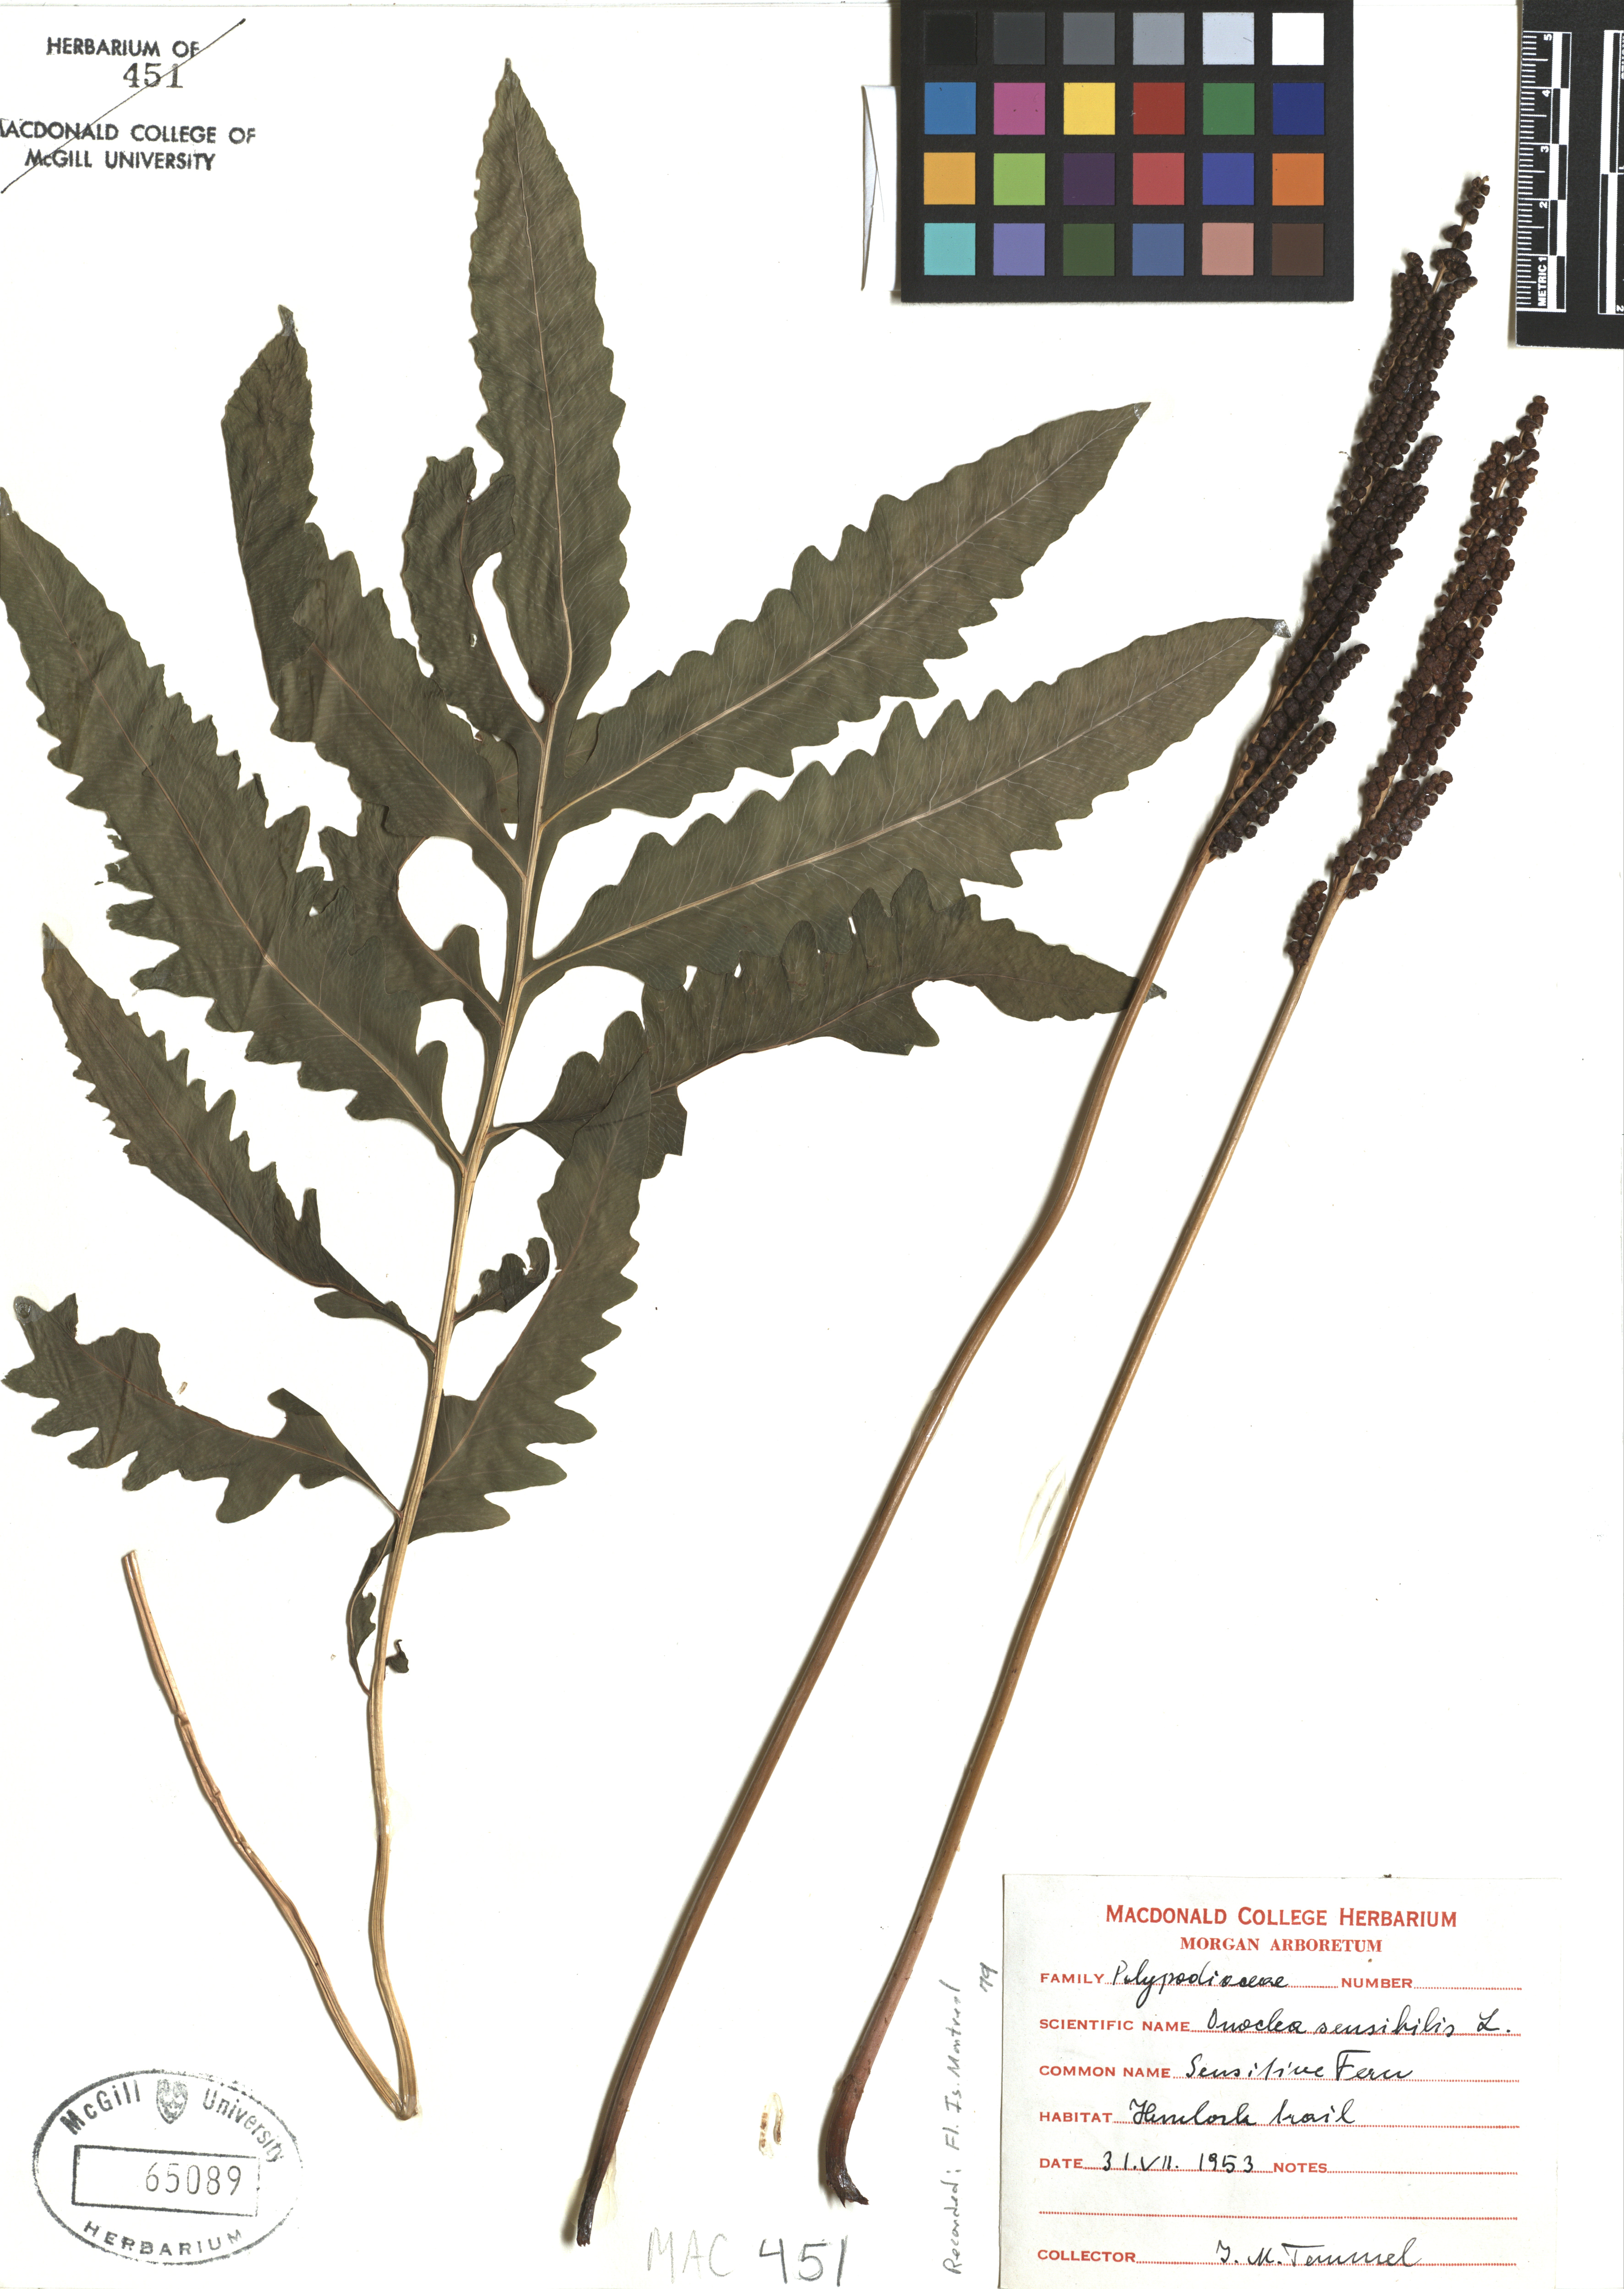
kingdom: Plantae
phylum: Tracheophyta
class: Polypodiopsida
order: Polypodiales
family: Onocleaceae
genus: Onoclea
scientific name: Onoclea sensibilis
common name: Sensitive fern
